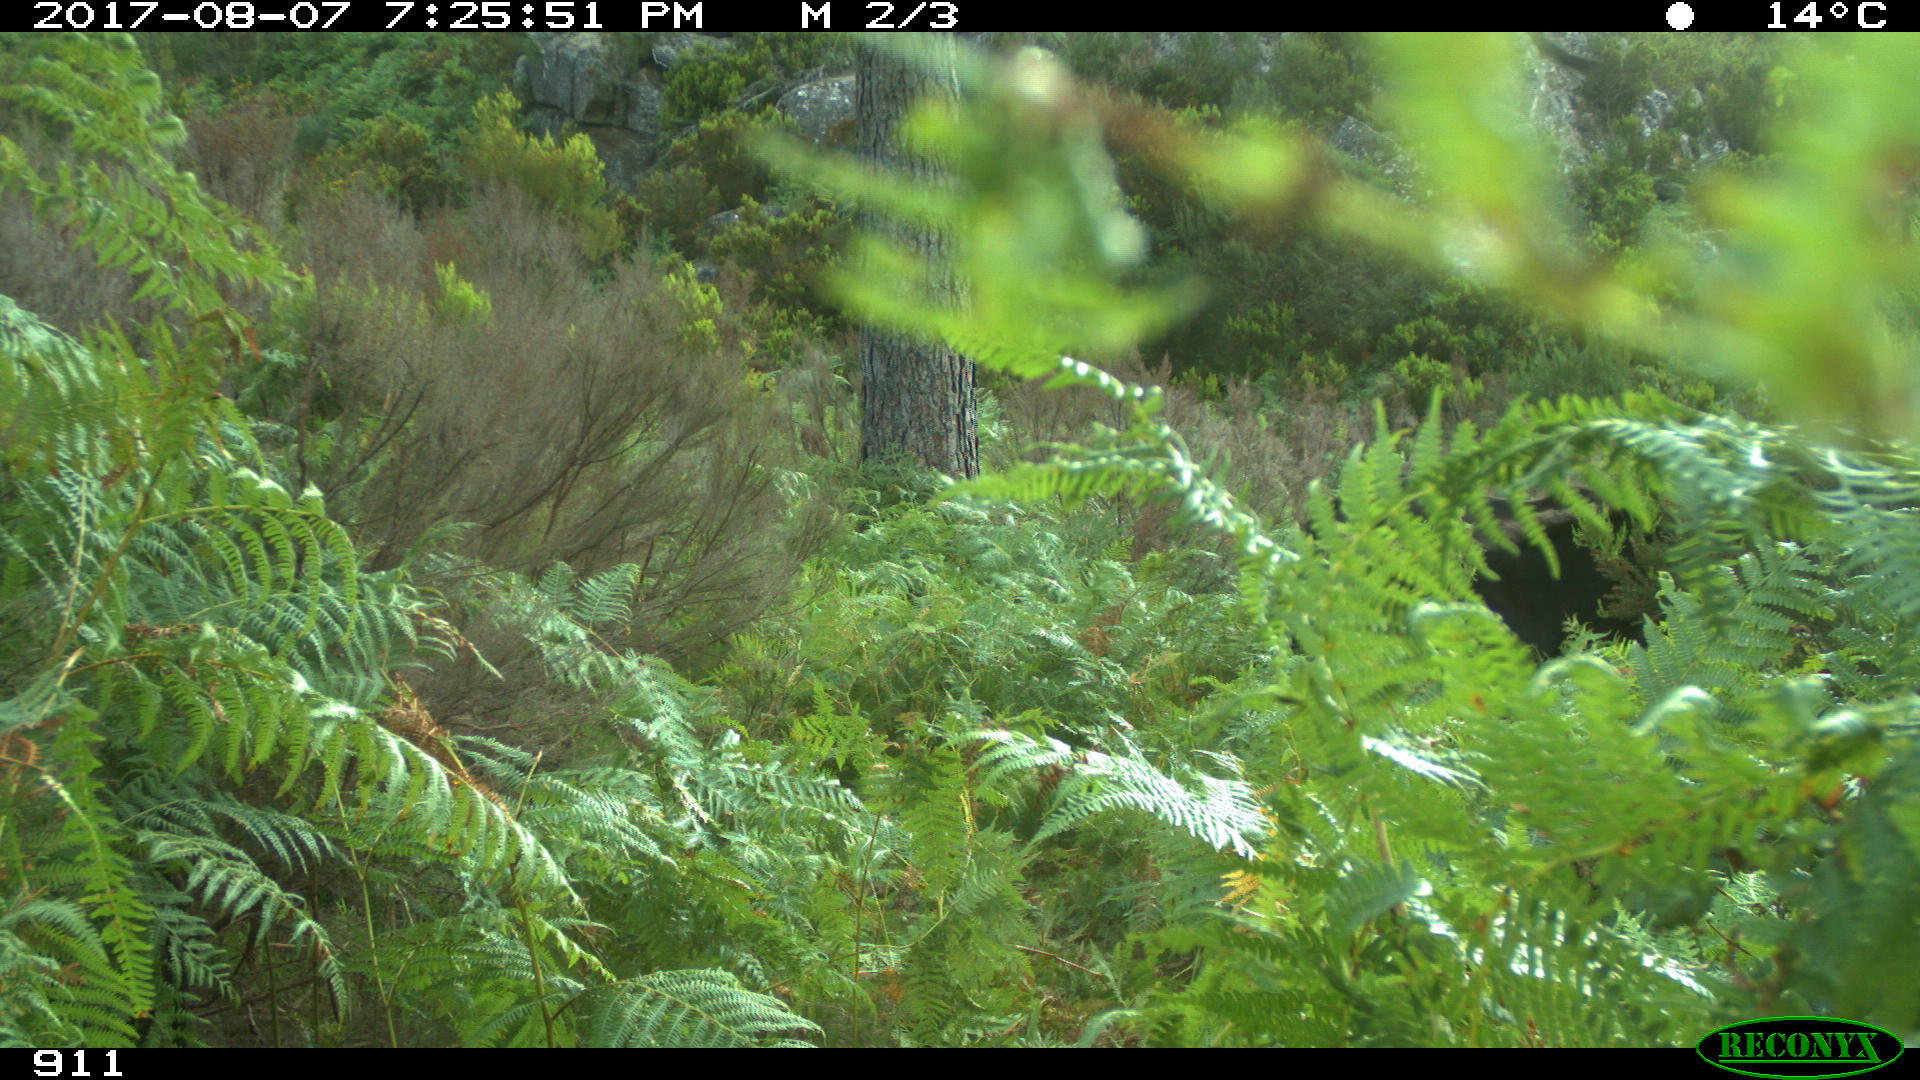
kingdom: Animalia
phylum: Chordata
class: Mammalia
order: Perissodactyla
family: Equidae
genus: Equus
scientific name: Equus caballus
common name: Horse
